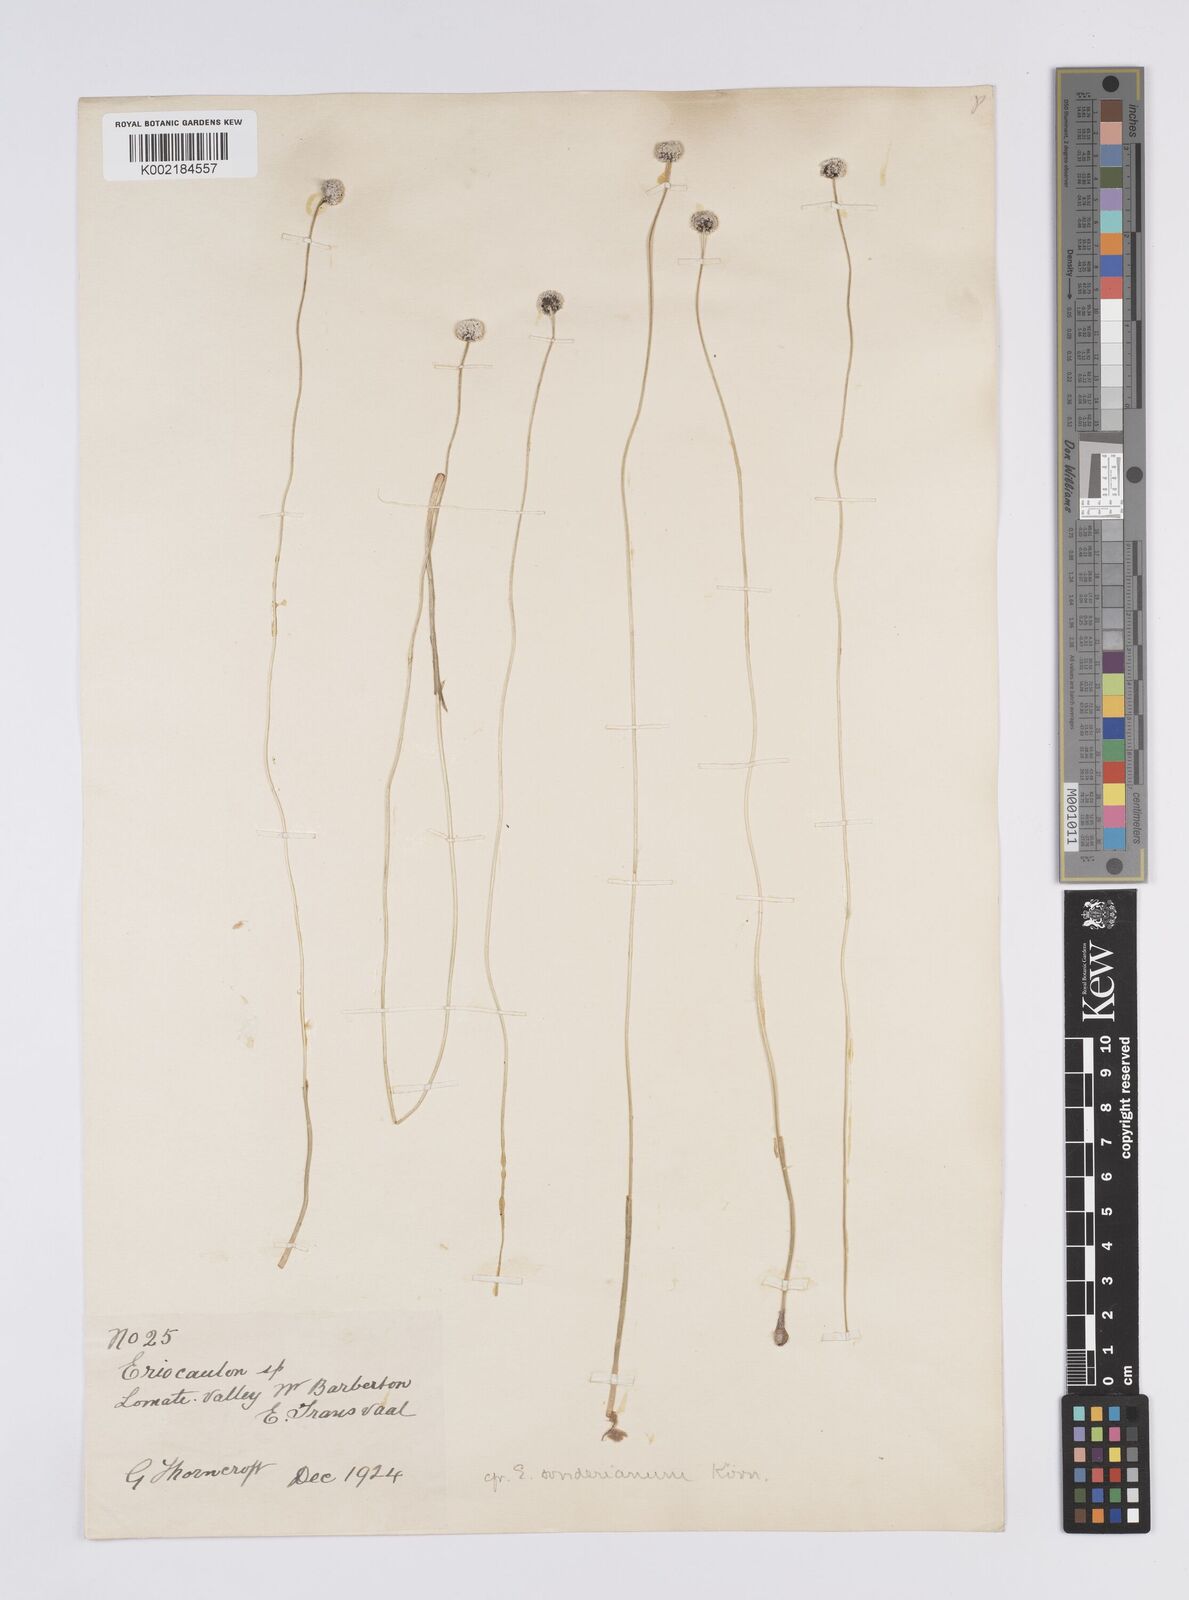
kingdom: Plantae
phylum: Tracheophyta
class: Liliopsida
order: Poales
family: Eriocaulaceae
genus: Eriocaulon
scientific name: Eriocaulon sonderianum
